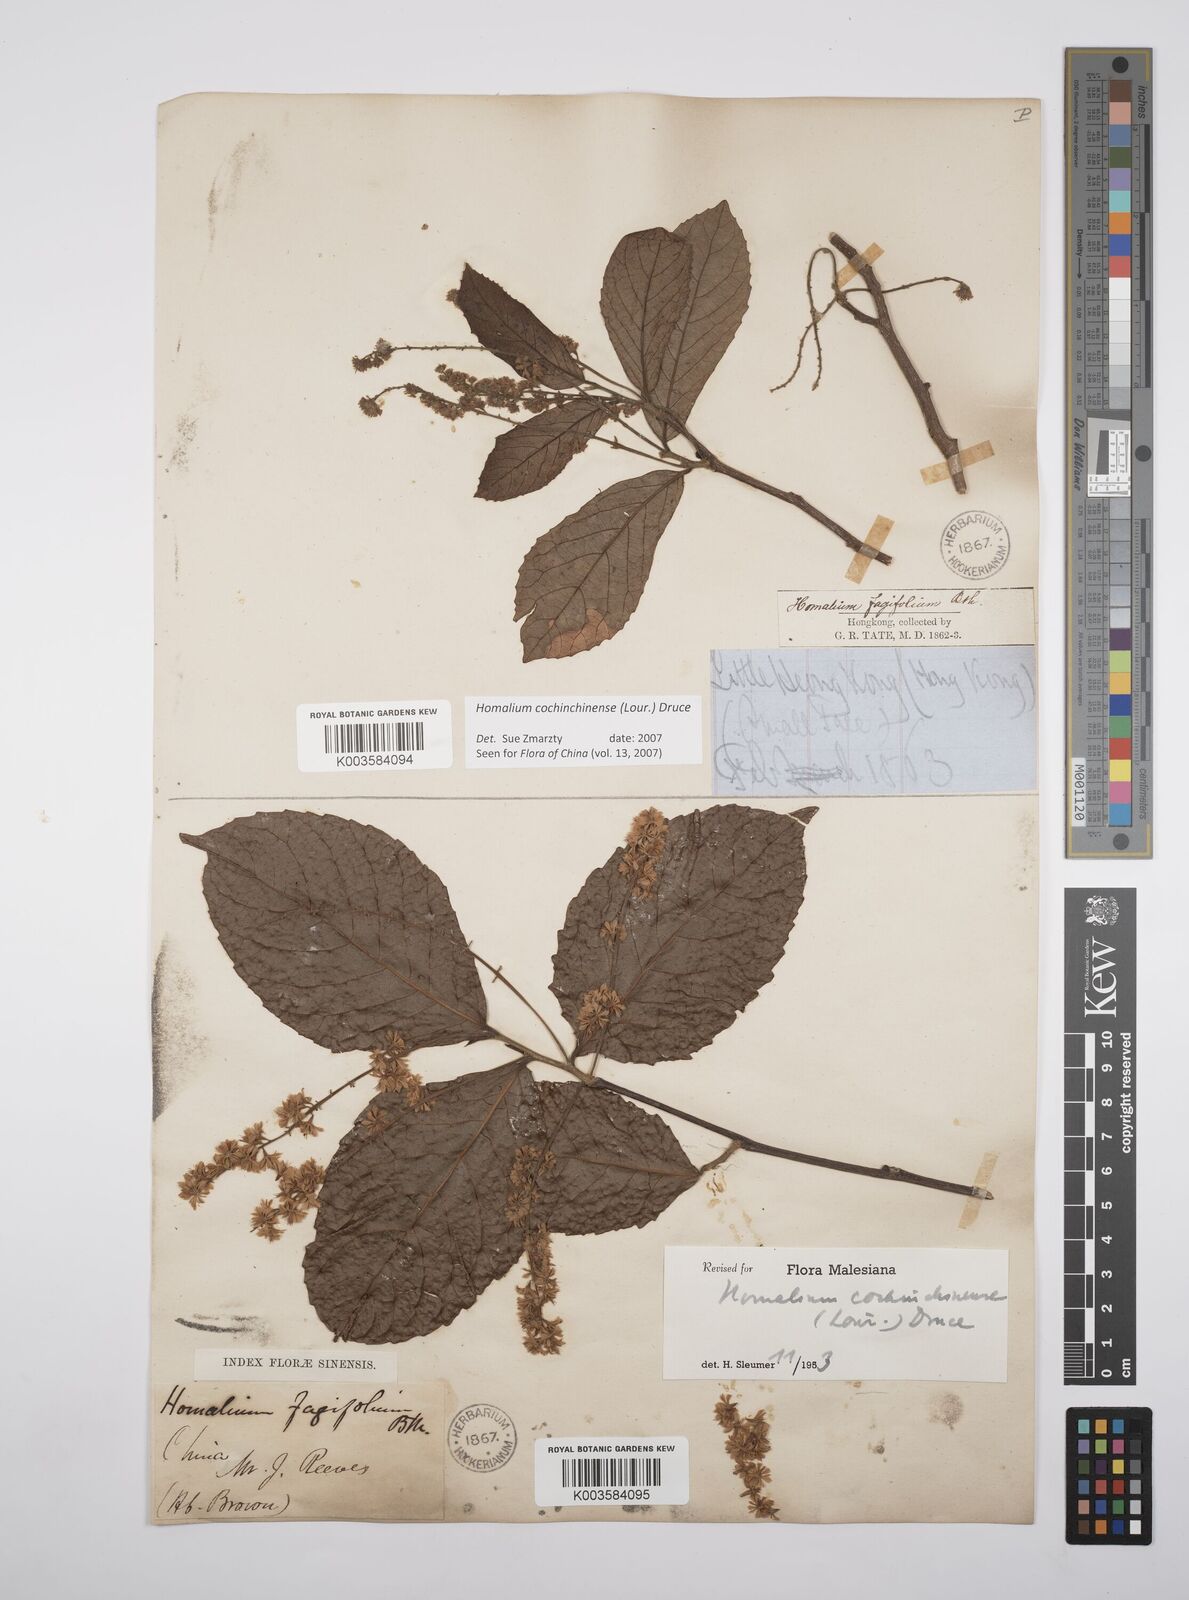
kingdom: Plantae
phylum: Tracheophyta
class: Magnoliopsida
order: Malpighiales
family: Salicaceae
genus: Homalium
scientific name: Homalium cochinchinensis
